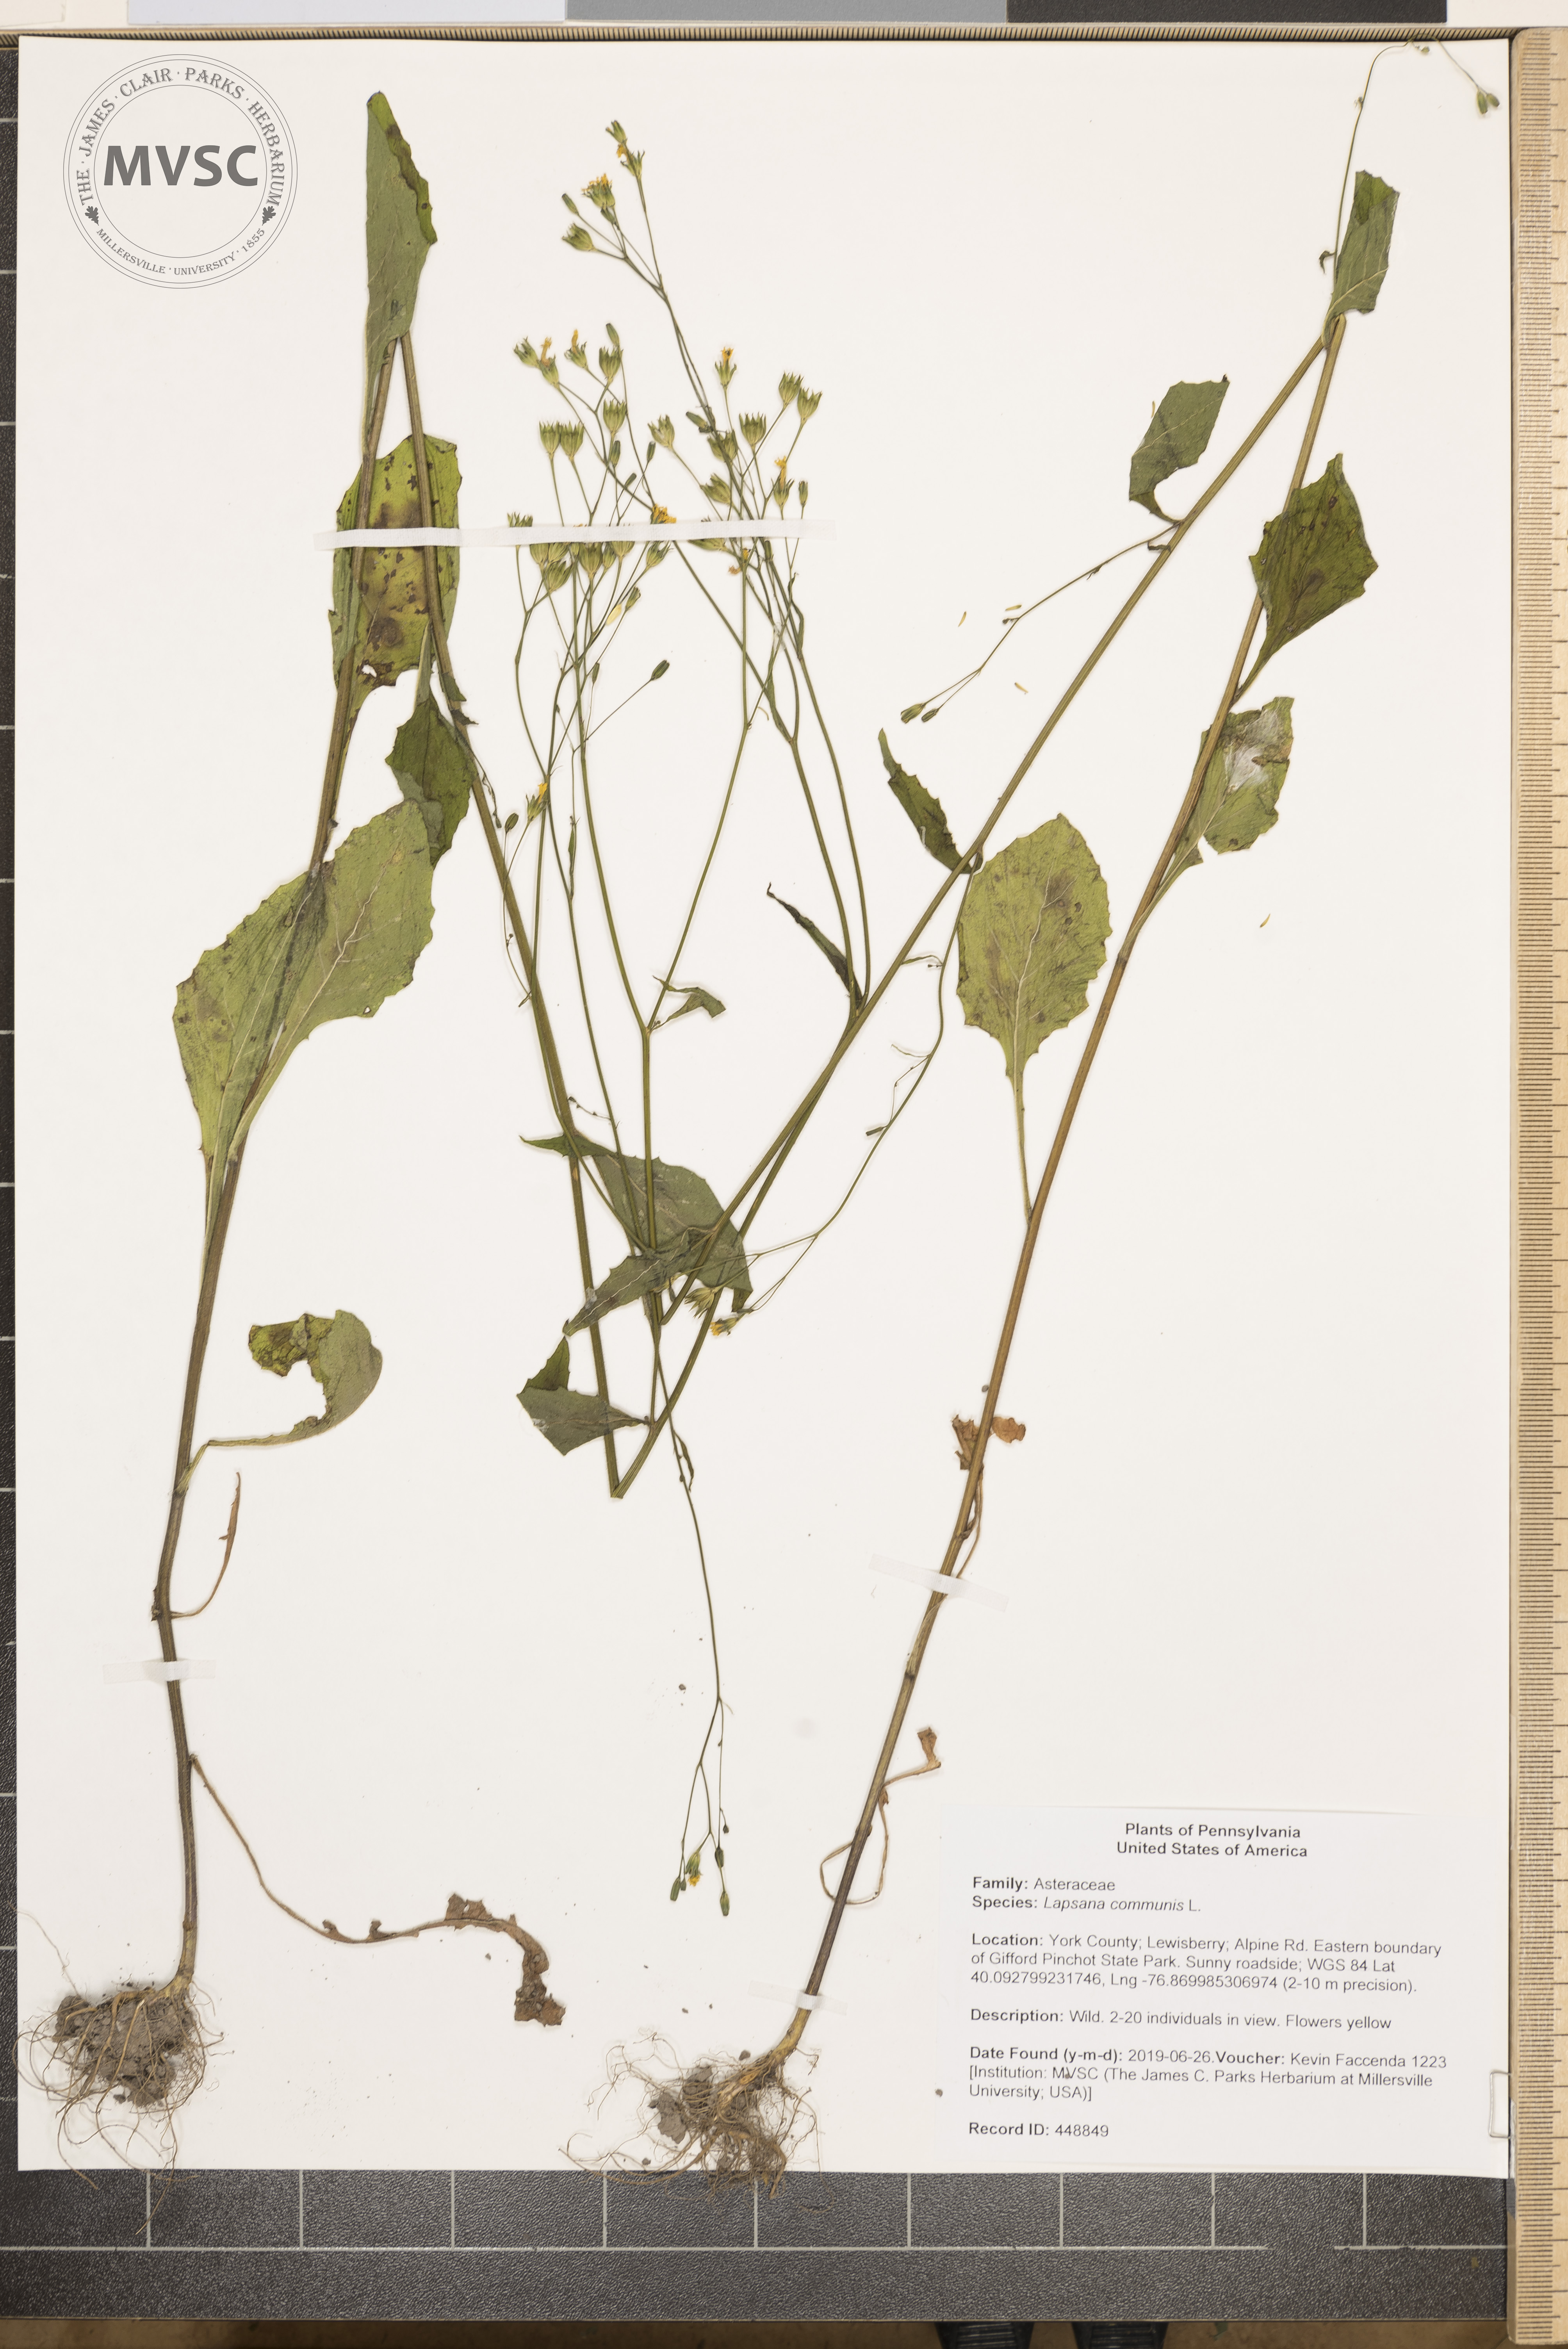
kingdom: Plantae
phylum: Tracheophyta
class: Magnoliopsida
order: Asterales
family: Asteraceae
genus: Lapsana
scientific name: Lapsana communis
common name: Nipplewort
